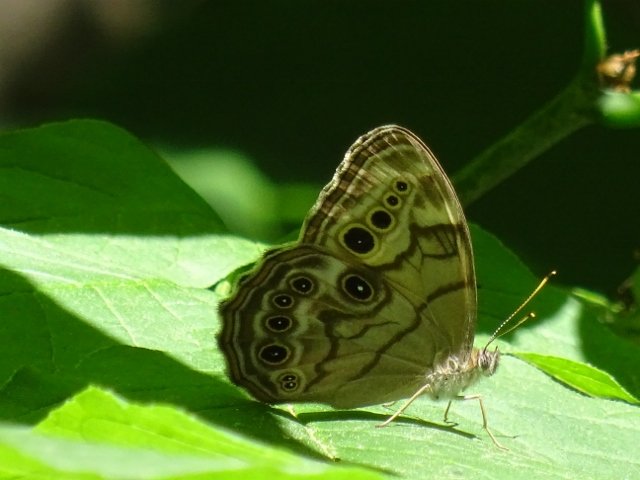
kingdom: Animalia
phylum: Arthropoda
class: Insecta
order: Lepidoptera
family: Nymphalidae
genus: Lethe
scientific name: Lethe anthedon
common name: Northern Pearly-Eye
